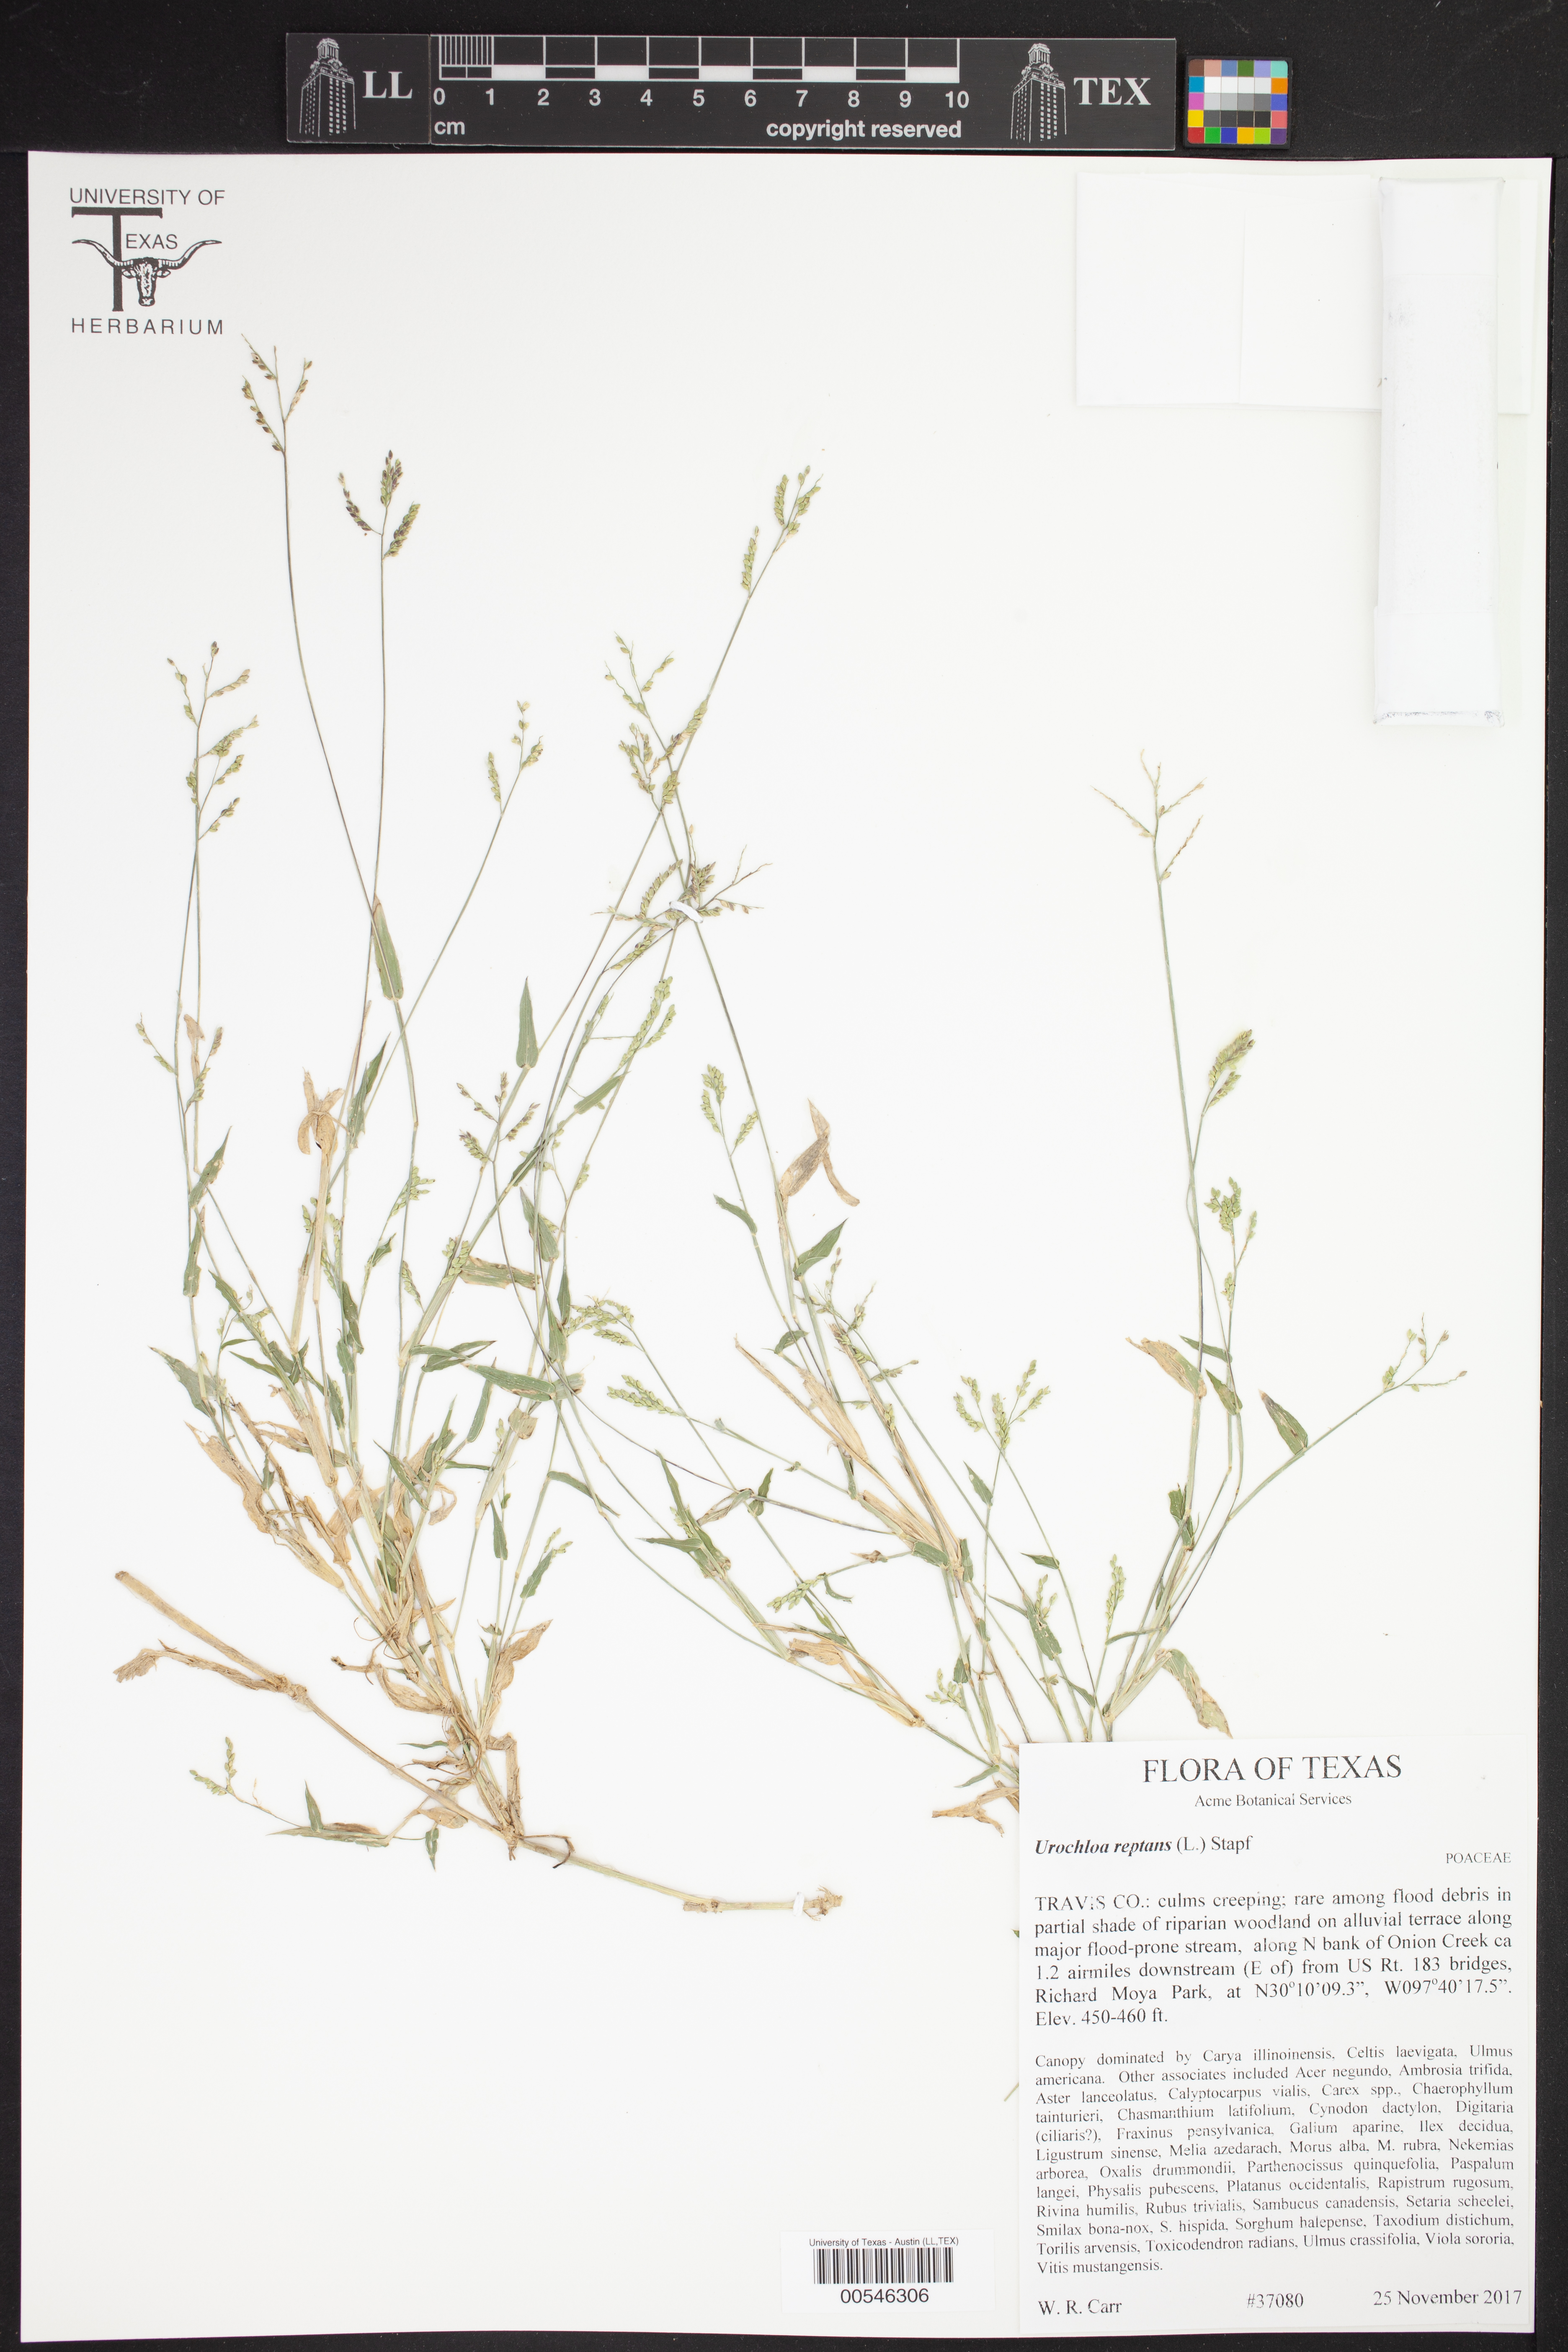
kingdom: Plantae
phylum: Tracheophyta
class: Liliopsida
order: Poales
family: Poaceae
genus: Urochloa
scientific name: Urochloa reptans
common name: Sprawling signalgrass
